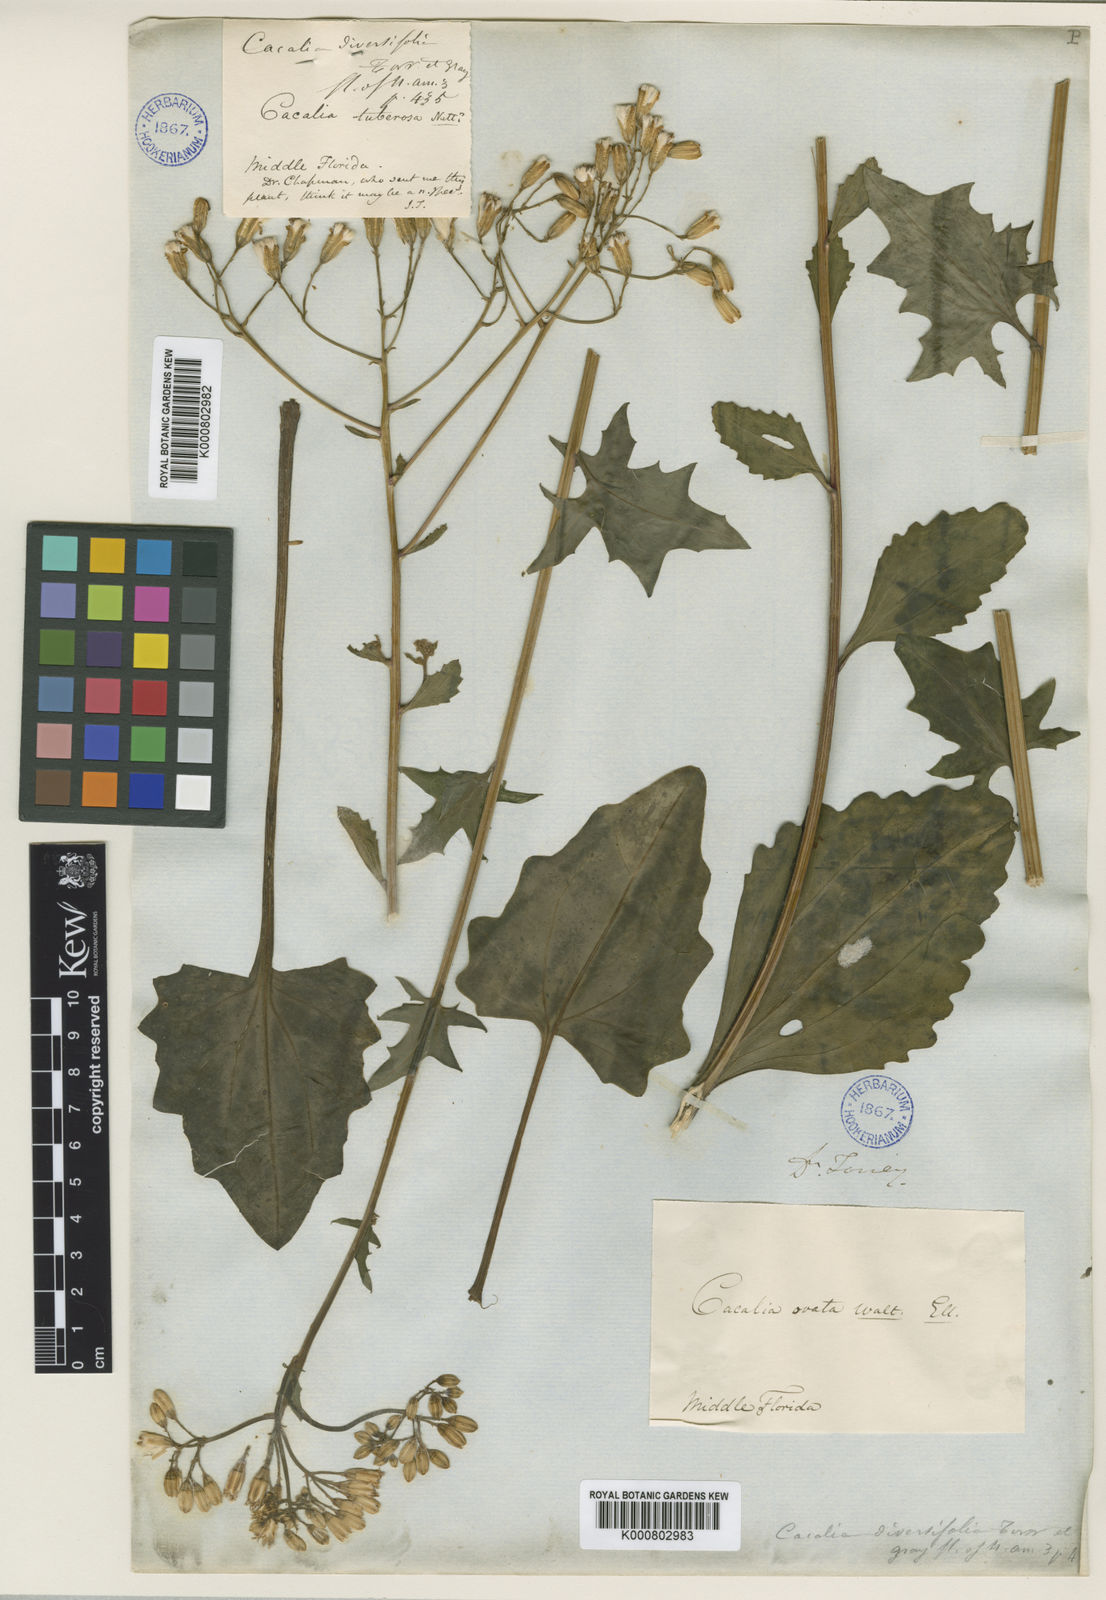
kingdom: Plantae
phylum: Tracheophyta
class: Magnoliopsida
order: Asterales
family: Asteraceae
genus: Arnoglossum
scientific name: Arnoglossum diversifolium
